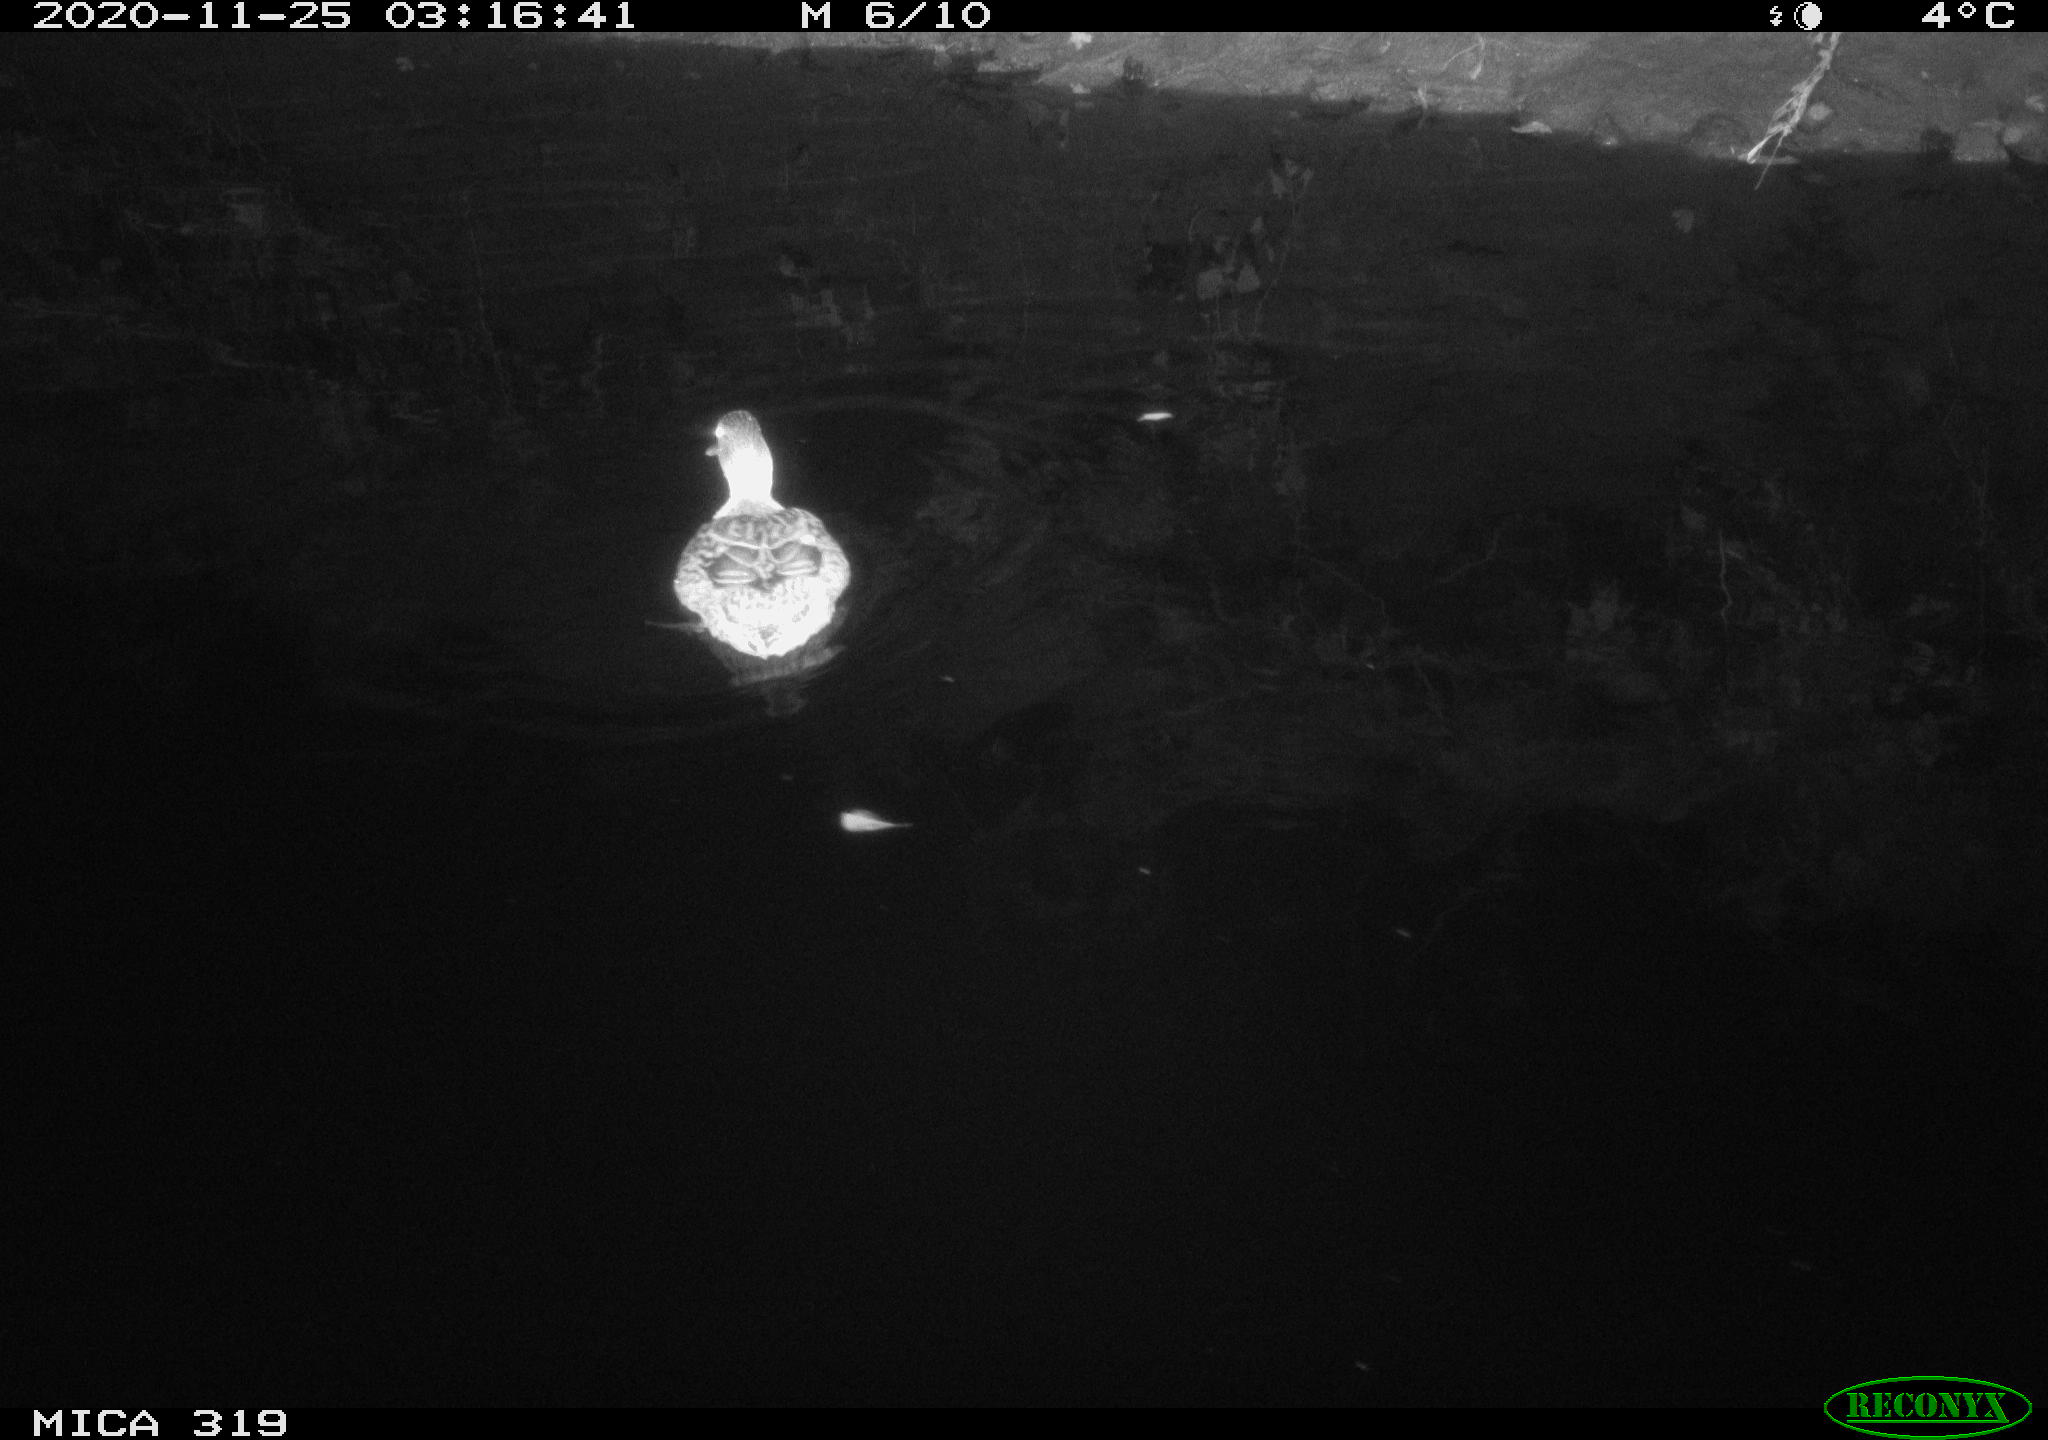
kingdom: Animalia
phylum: Chordata
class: Aves
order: Anseriformes
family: Anatidae
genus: Anas
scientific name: Anas platyrhynchos
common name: Mallard
